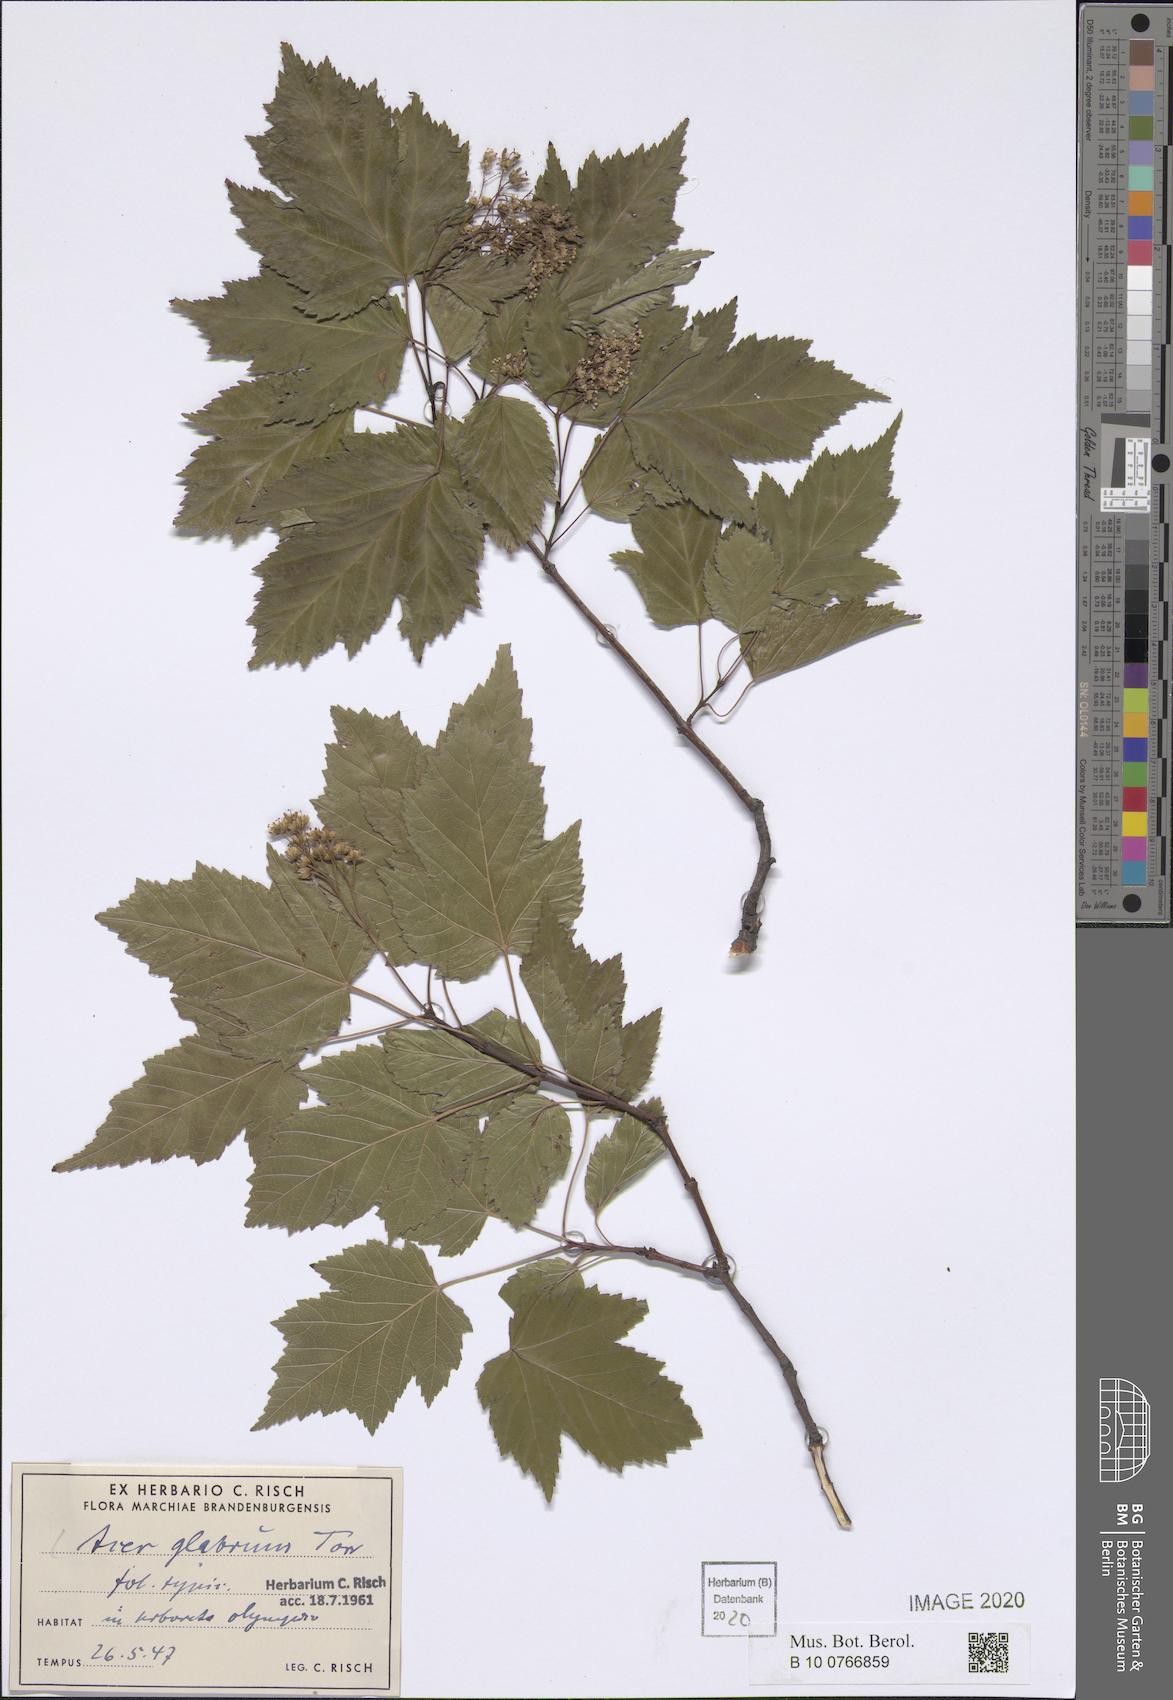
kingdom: Plantae
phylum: Tracheophyta
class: Magnoliopsida
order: Sapindales
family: Sapindaceae
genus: Acer
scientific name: Acer glabrum
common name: Rocky mountain maple
